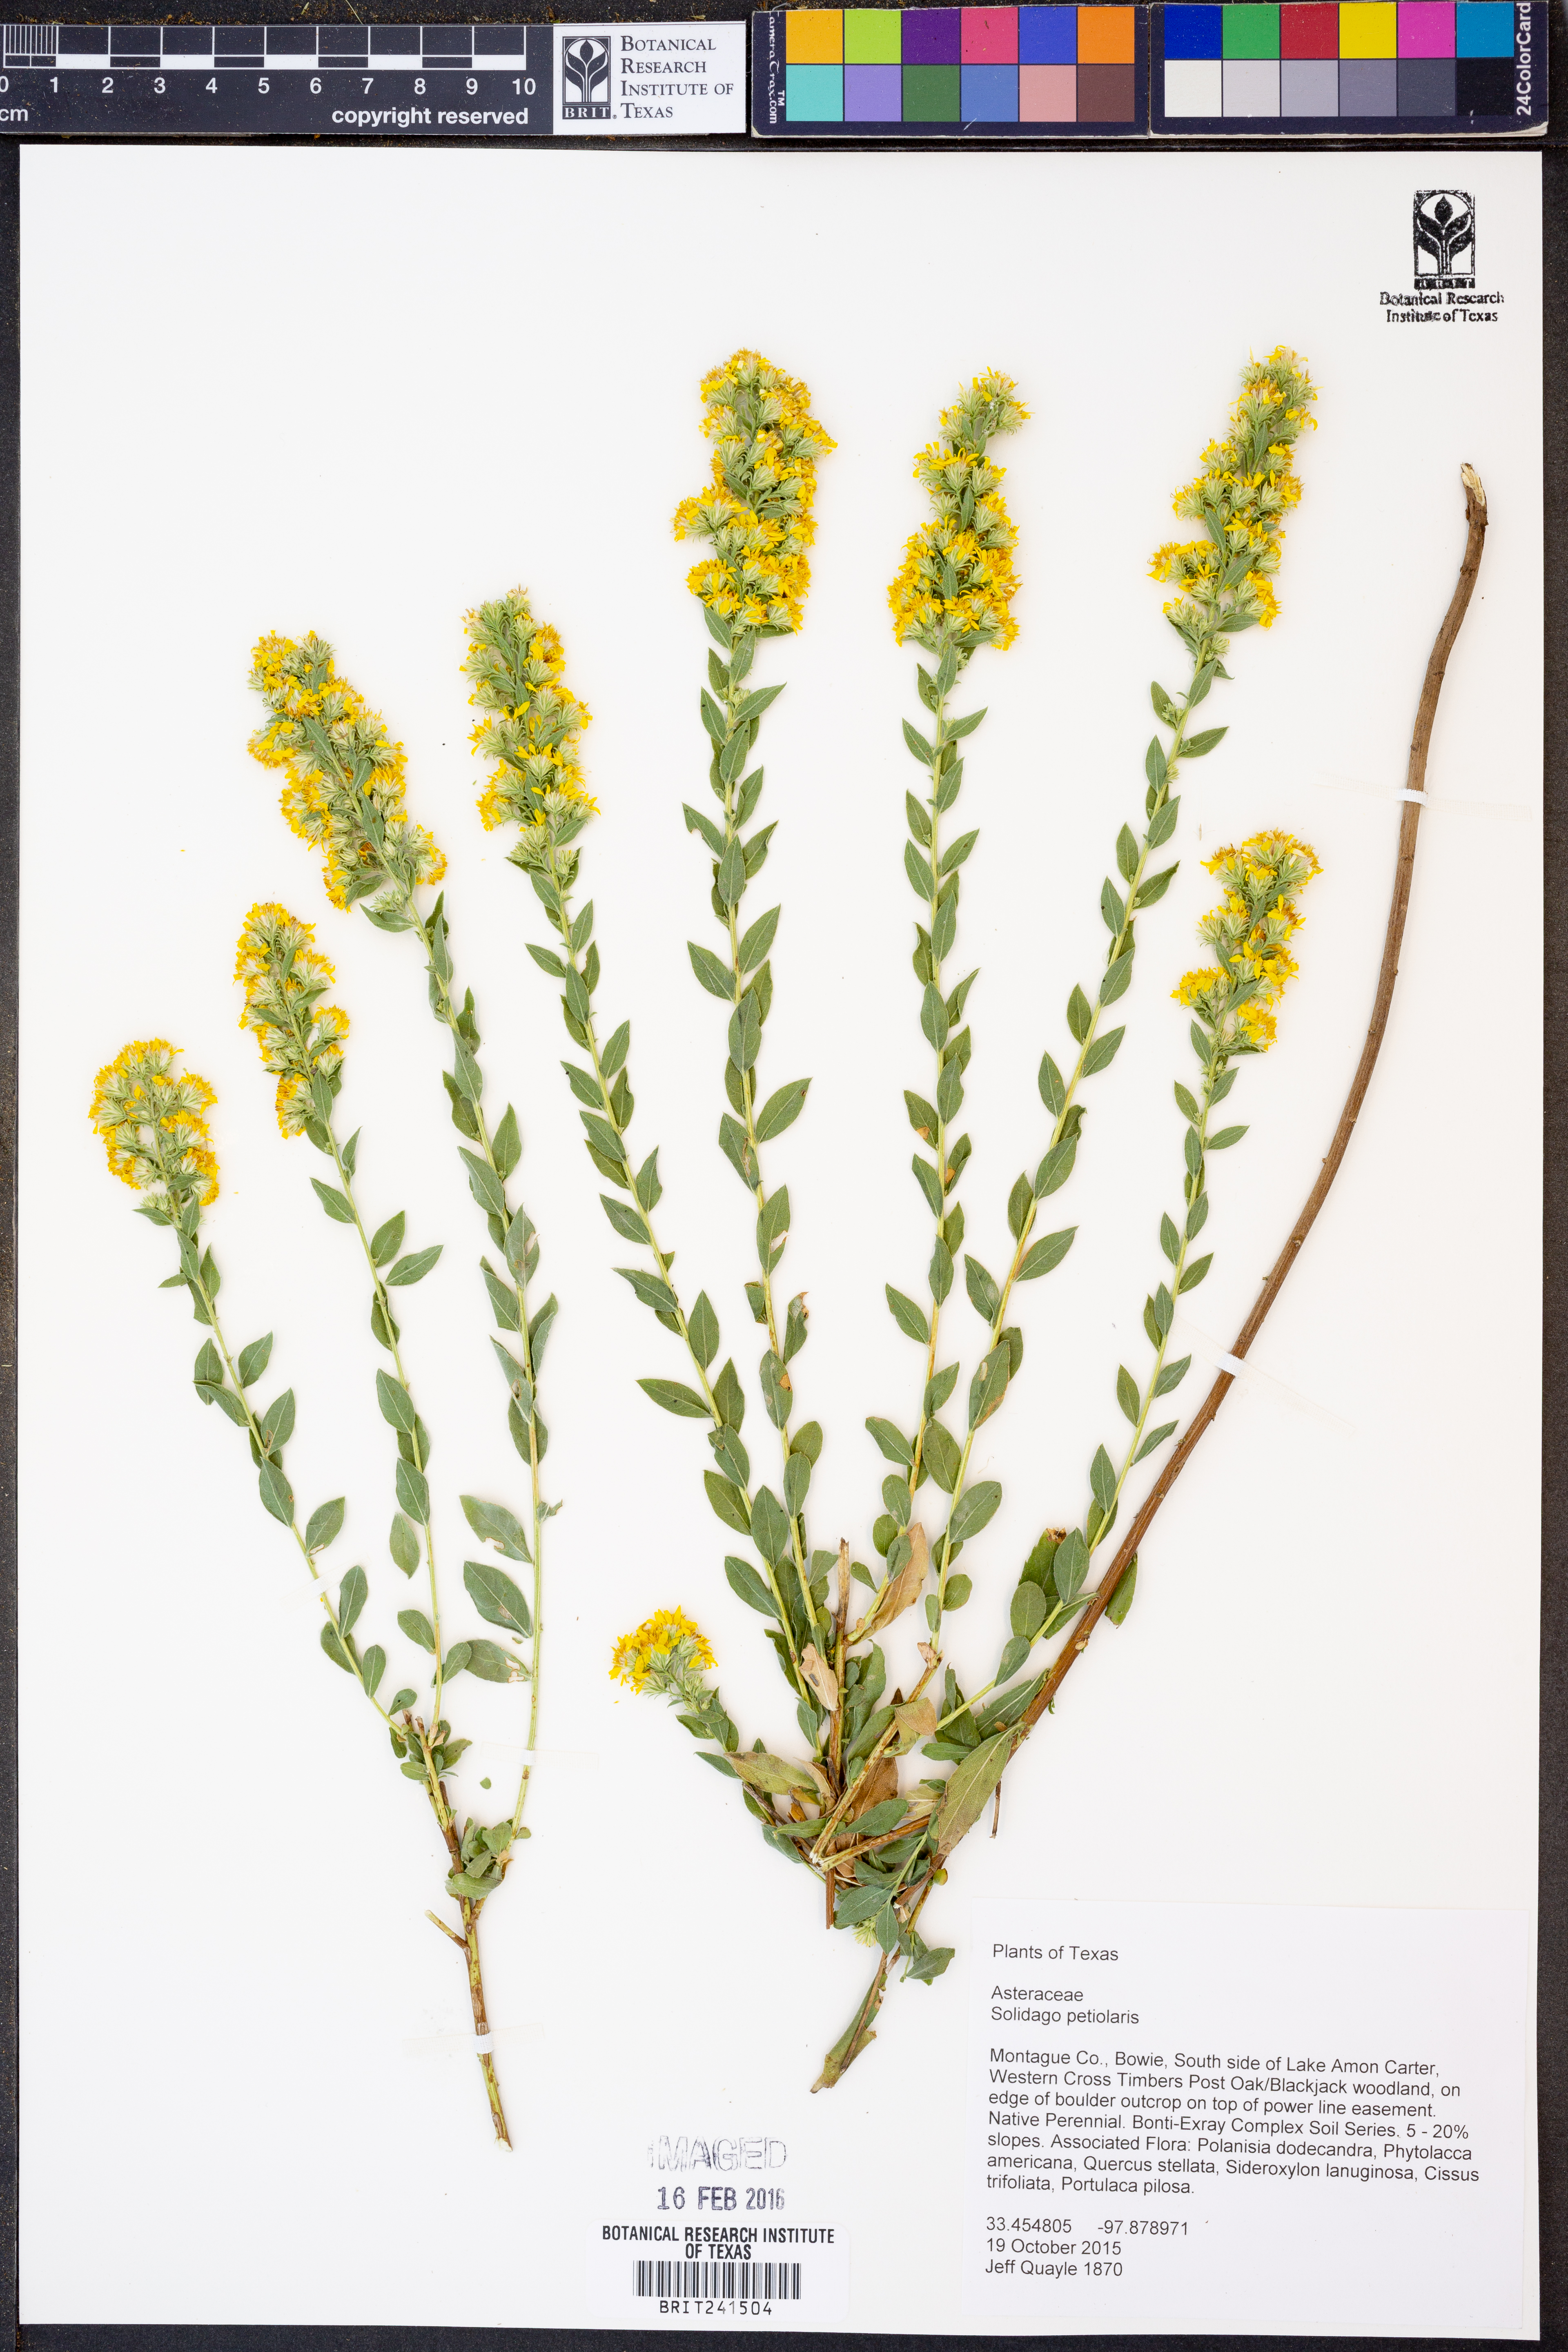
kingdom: Plantae
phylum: Tracheophyta
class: Magnoliopsida
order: Asterales
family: Asteraceae
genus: Solidago
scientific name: Solidago petiolaris
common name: Downy ragged goldenrod
